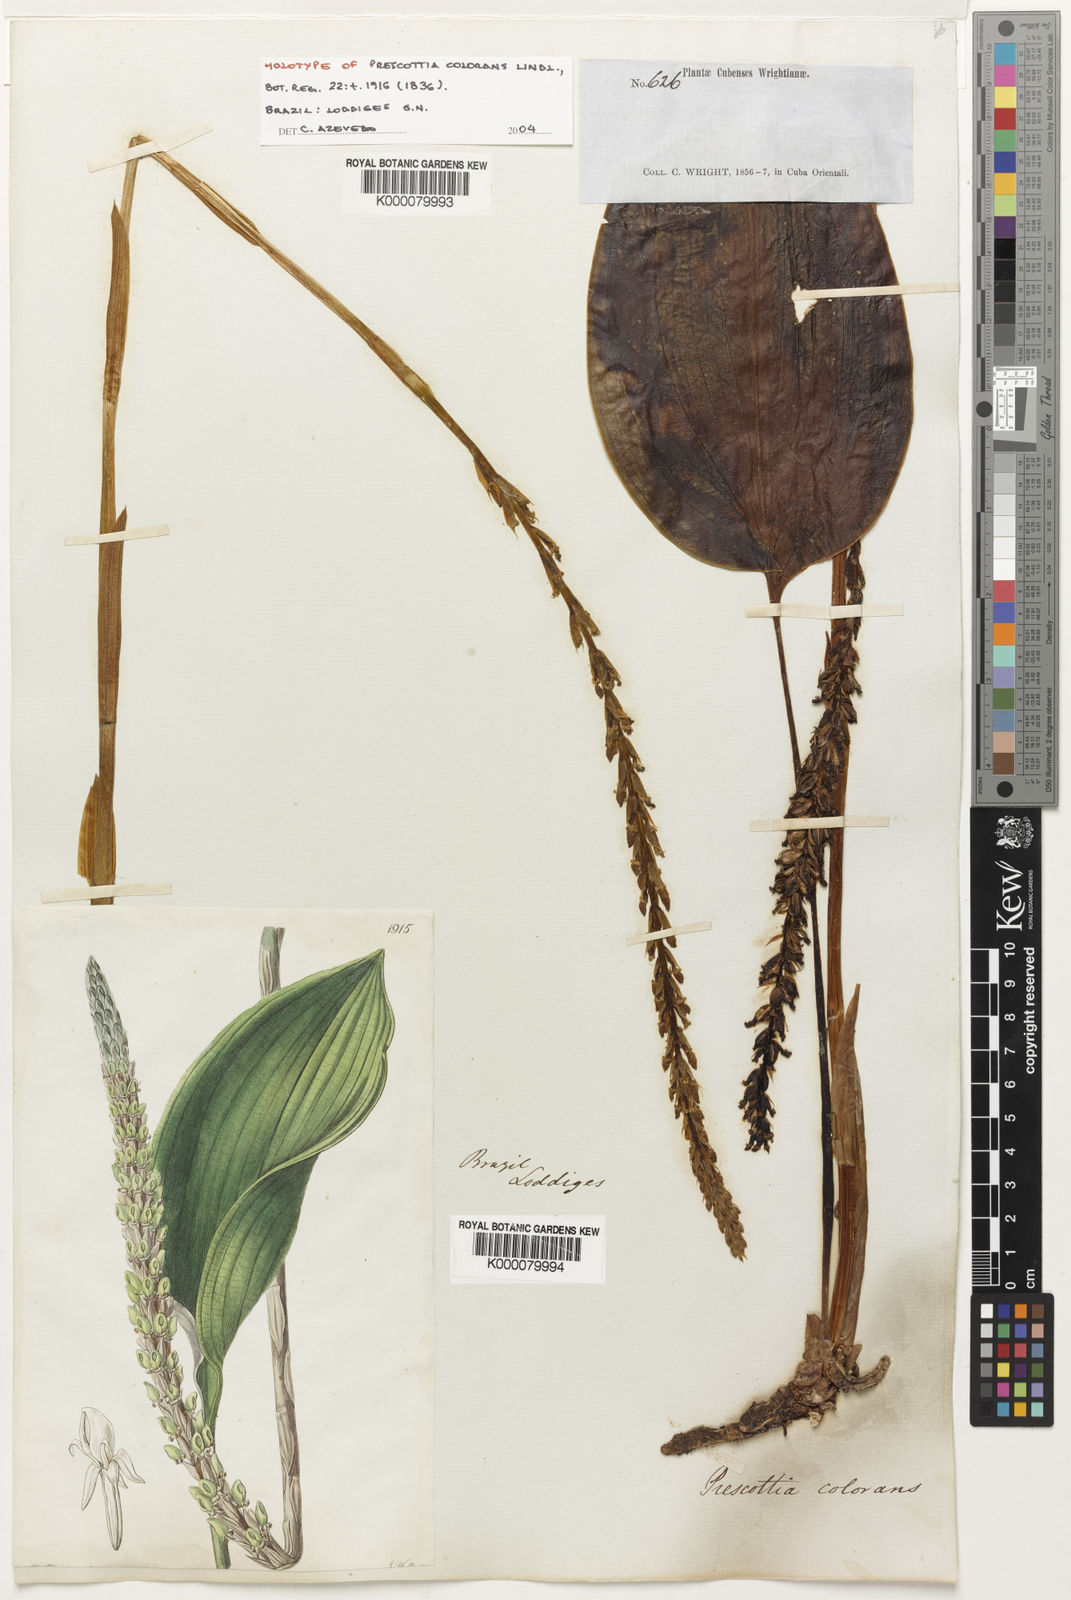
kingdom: Plantae
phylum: Tracheophyta
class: Liliopsida
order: Asparagales
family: Orchidaceae
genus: Prescottia
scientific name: Prescottia stachyodes
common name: Mountain prescott orchid
